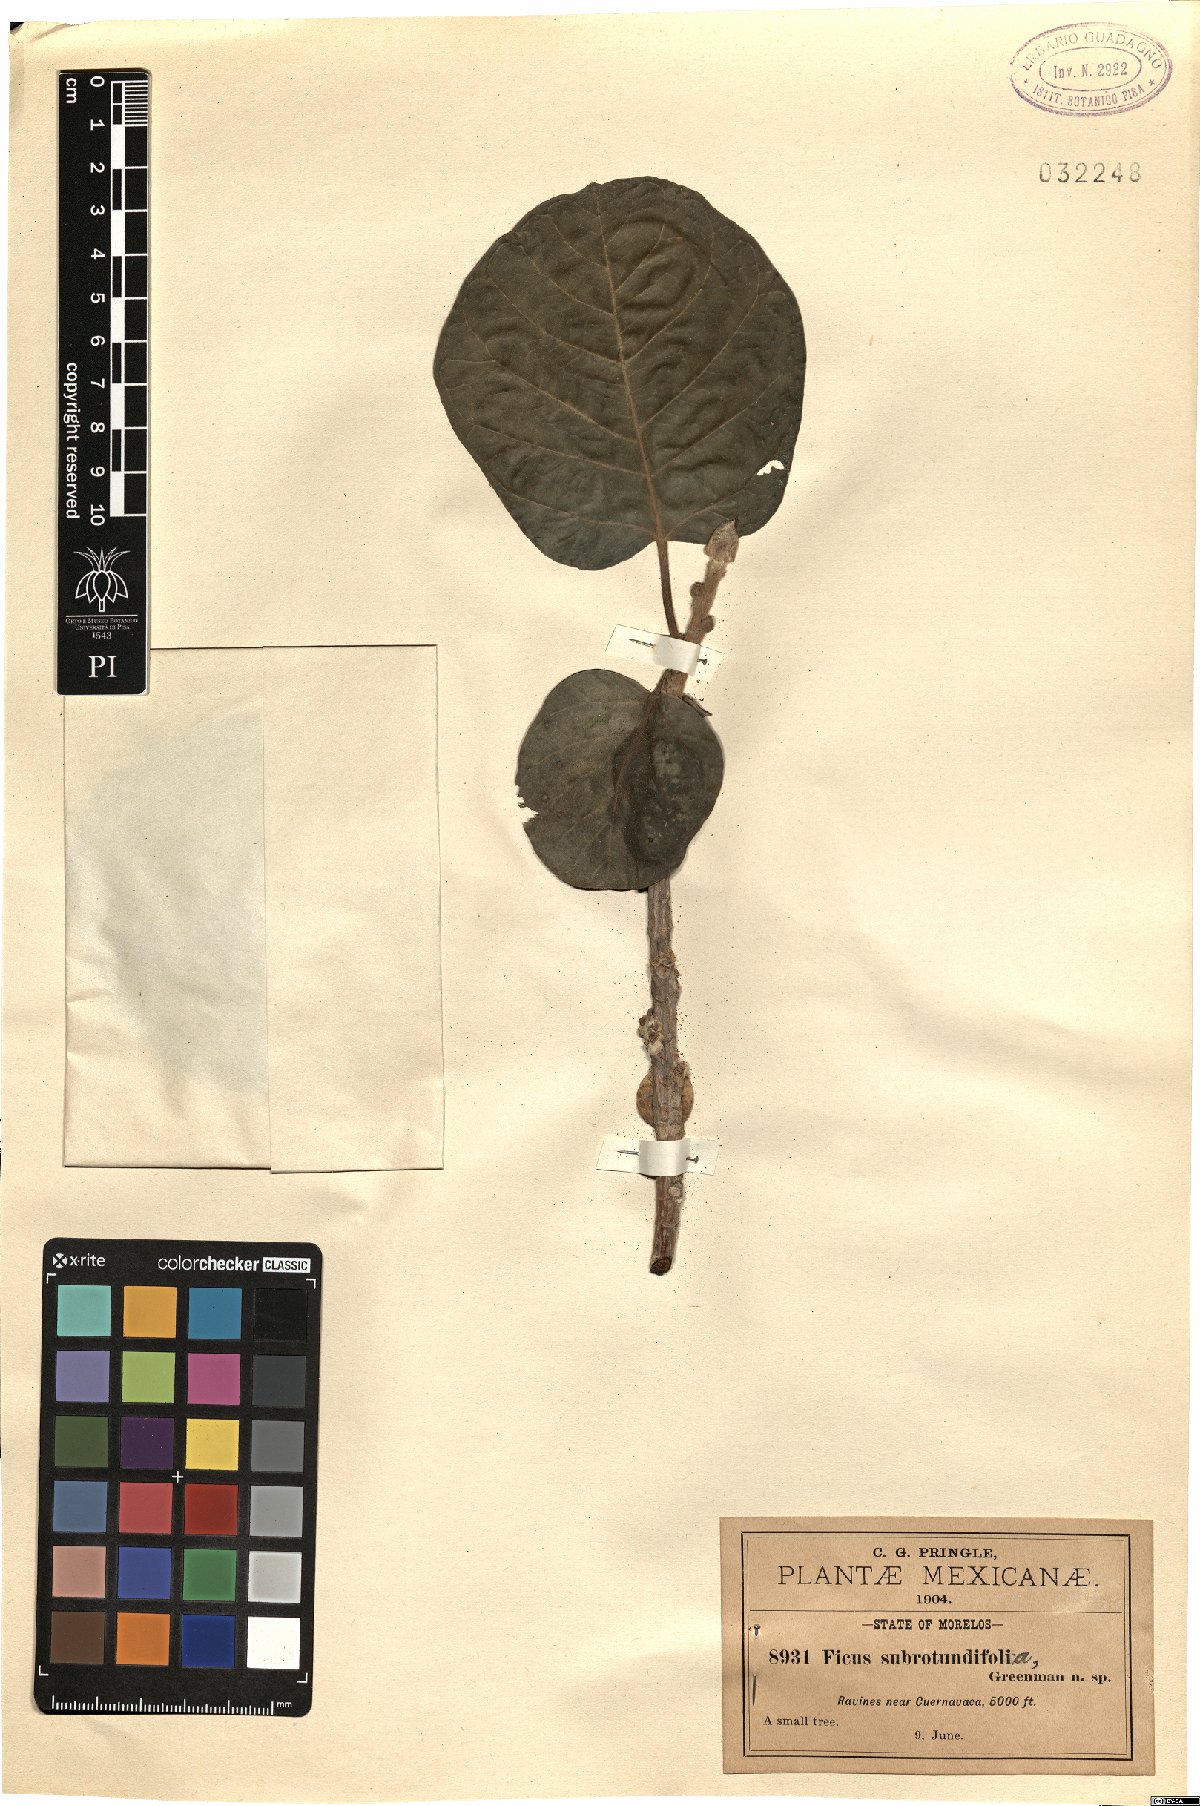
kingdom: Plantae
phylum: Tracheophyta
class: Magnoliopsida
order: Rosales
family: Moraceae
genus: Ficus
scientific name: Ficus cotinifolia
